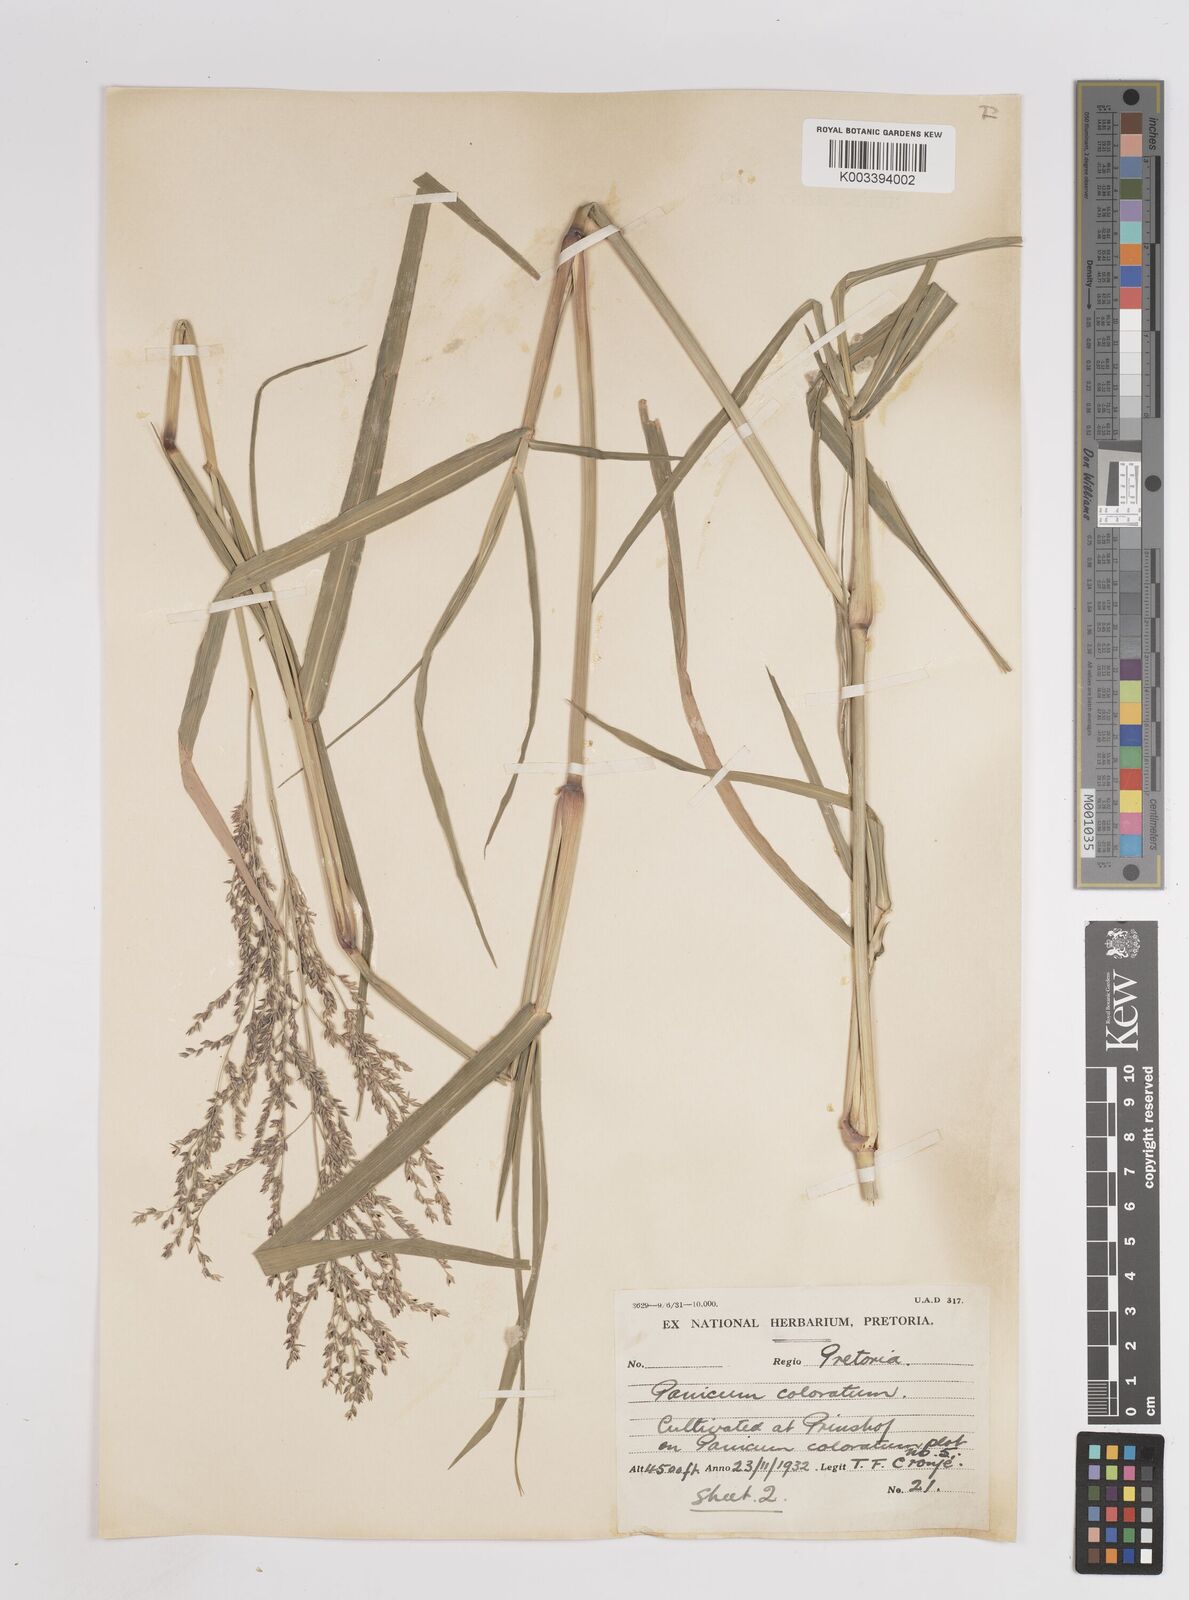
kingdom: Plantae
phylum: Tracheophyta
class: Liliopsida
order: Poales
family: Poaceae
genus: Panicum
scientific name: Panicum coloratum
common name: Kleingrass
